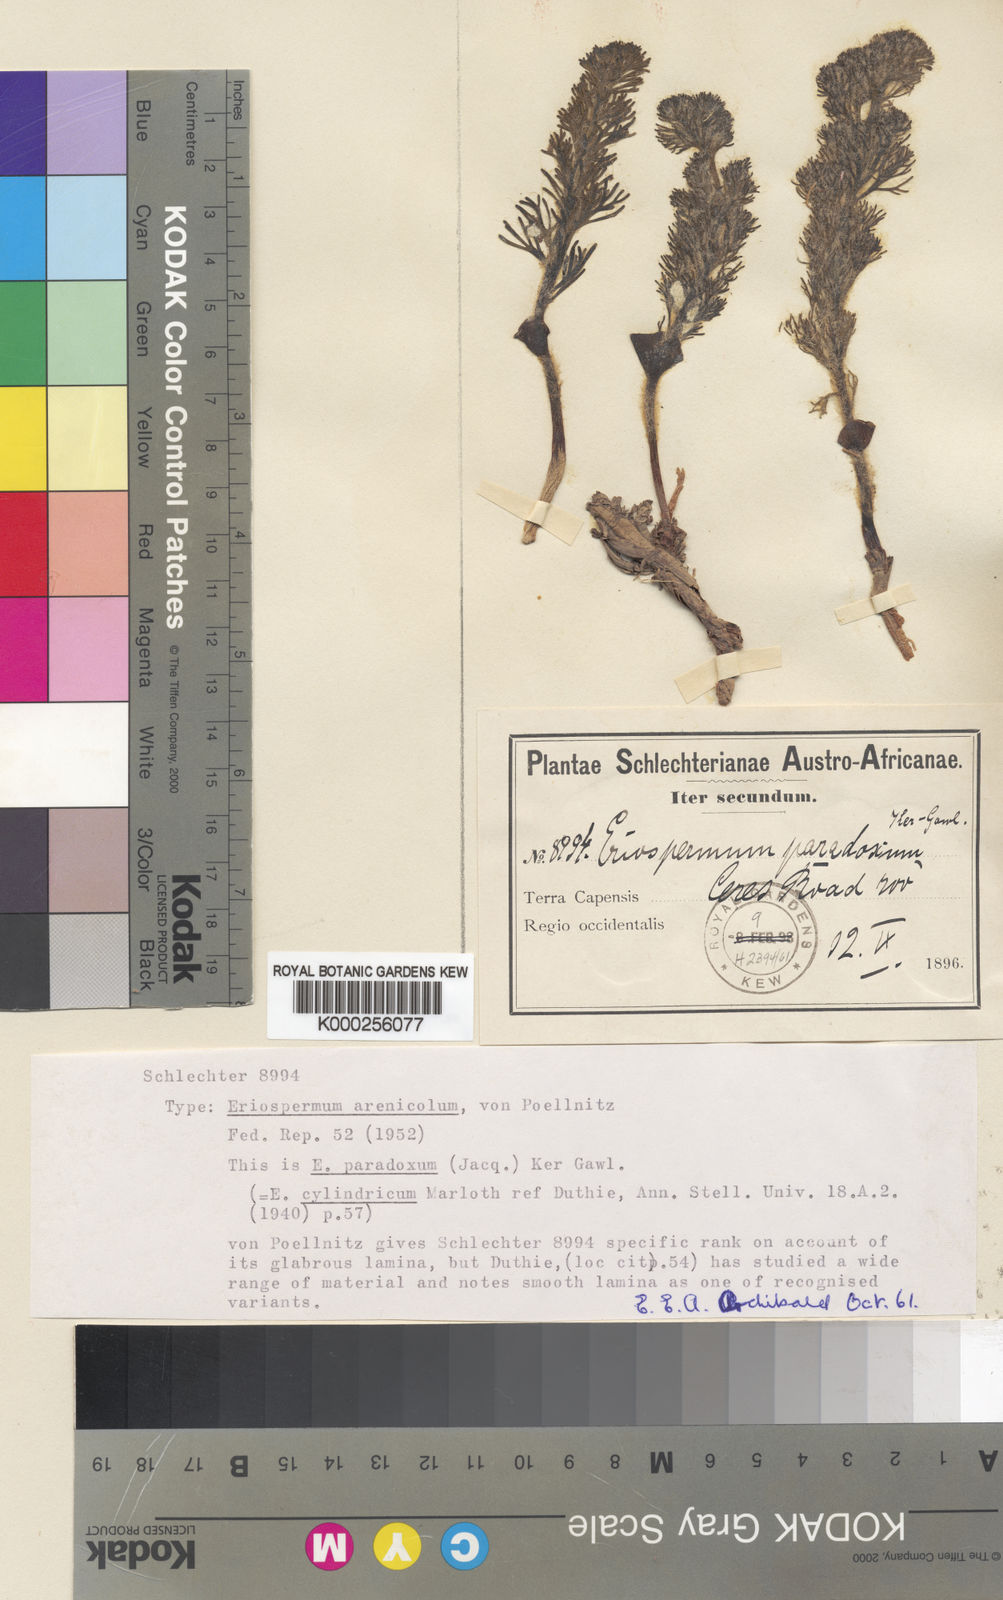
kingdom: Plantae
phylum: Tracheophyta
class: Liliopsida
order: Asparagales
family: Asparagaceae
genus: Eriospermum
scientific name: Eriospermum paradoxum
